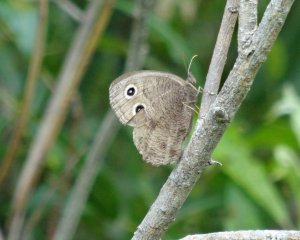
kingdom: Animalia
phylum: Arthropoda
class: Insecta
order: Lepidoptera
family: Nymphalidae
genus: Cercyonis
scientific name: Cercyonis pegala
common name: Common Wood-Nymph
